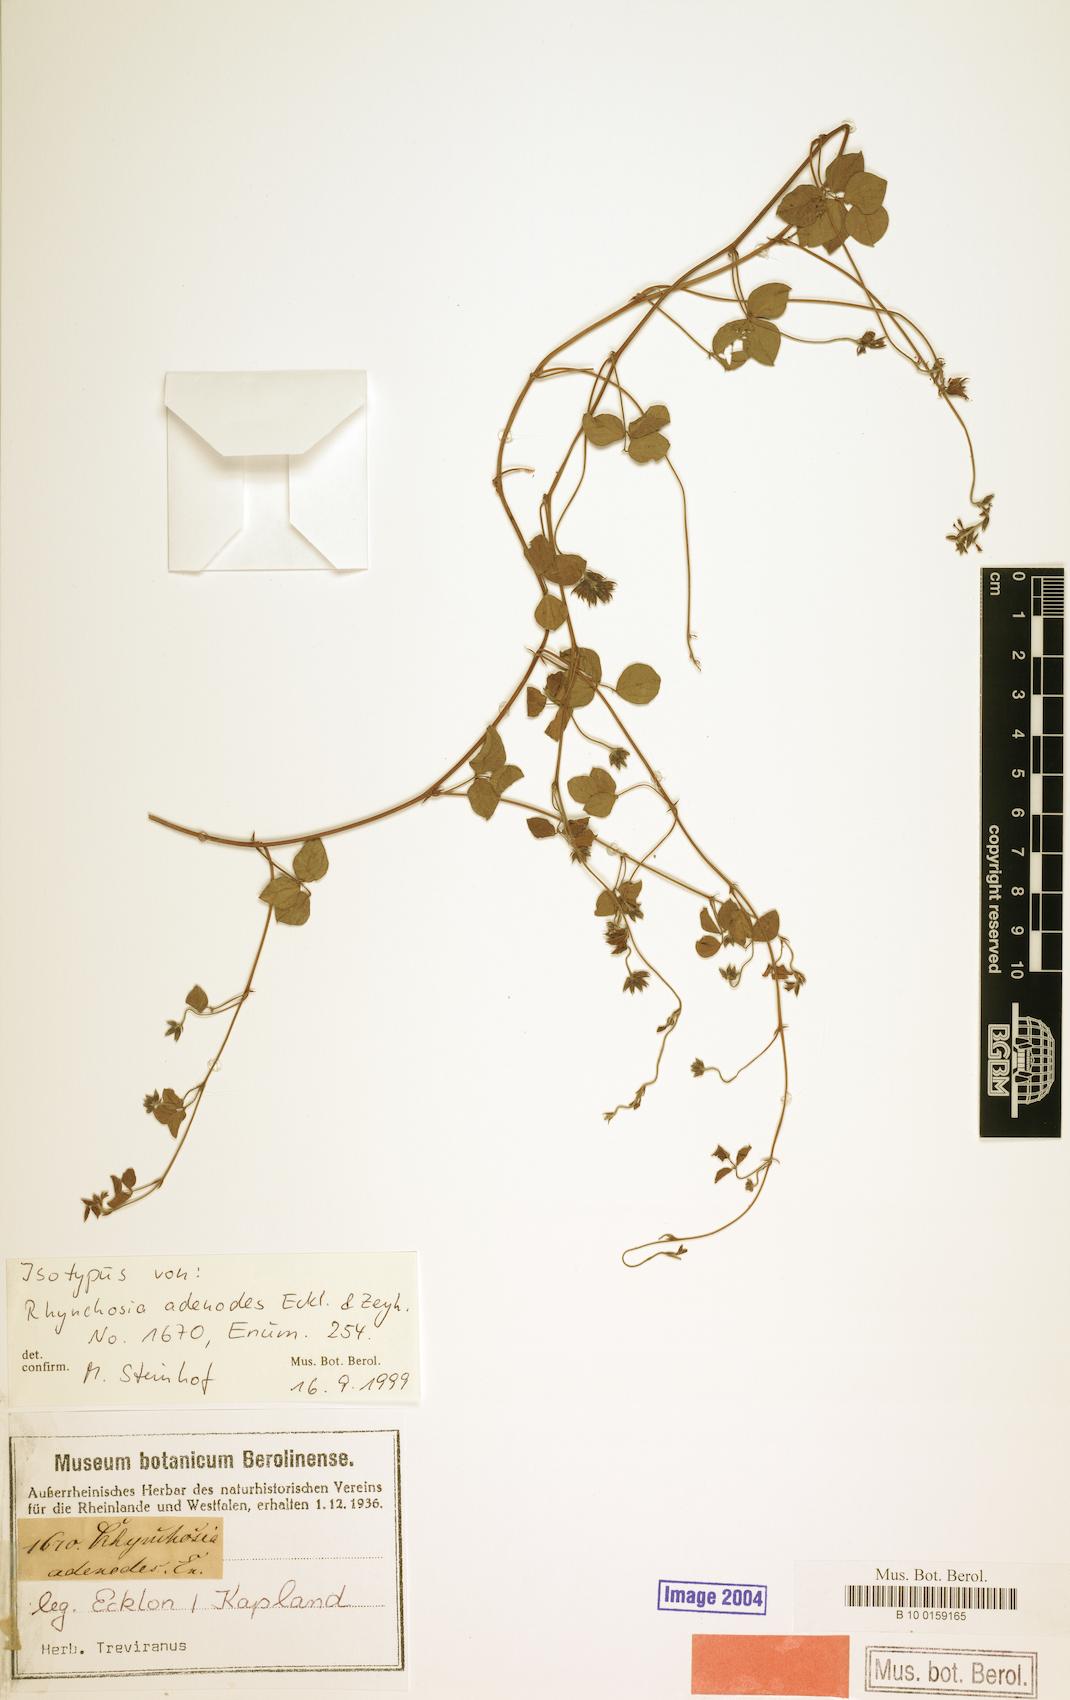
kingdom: Plantae
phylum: Tracheophyta
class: Magnoliopsida
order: Fabales
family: Fabaceae
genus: Rhynchosia
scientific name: Rhynchosia adenodes
